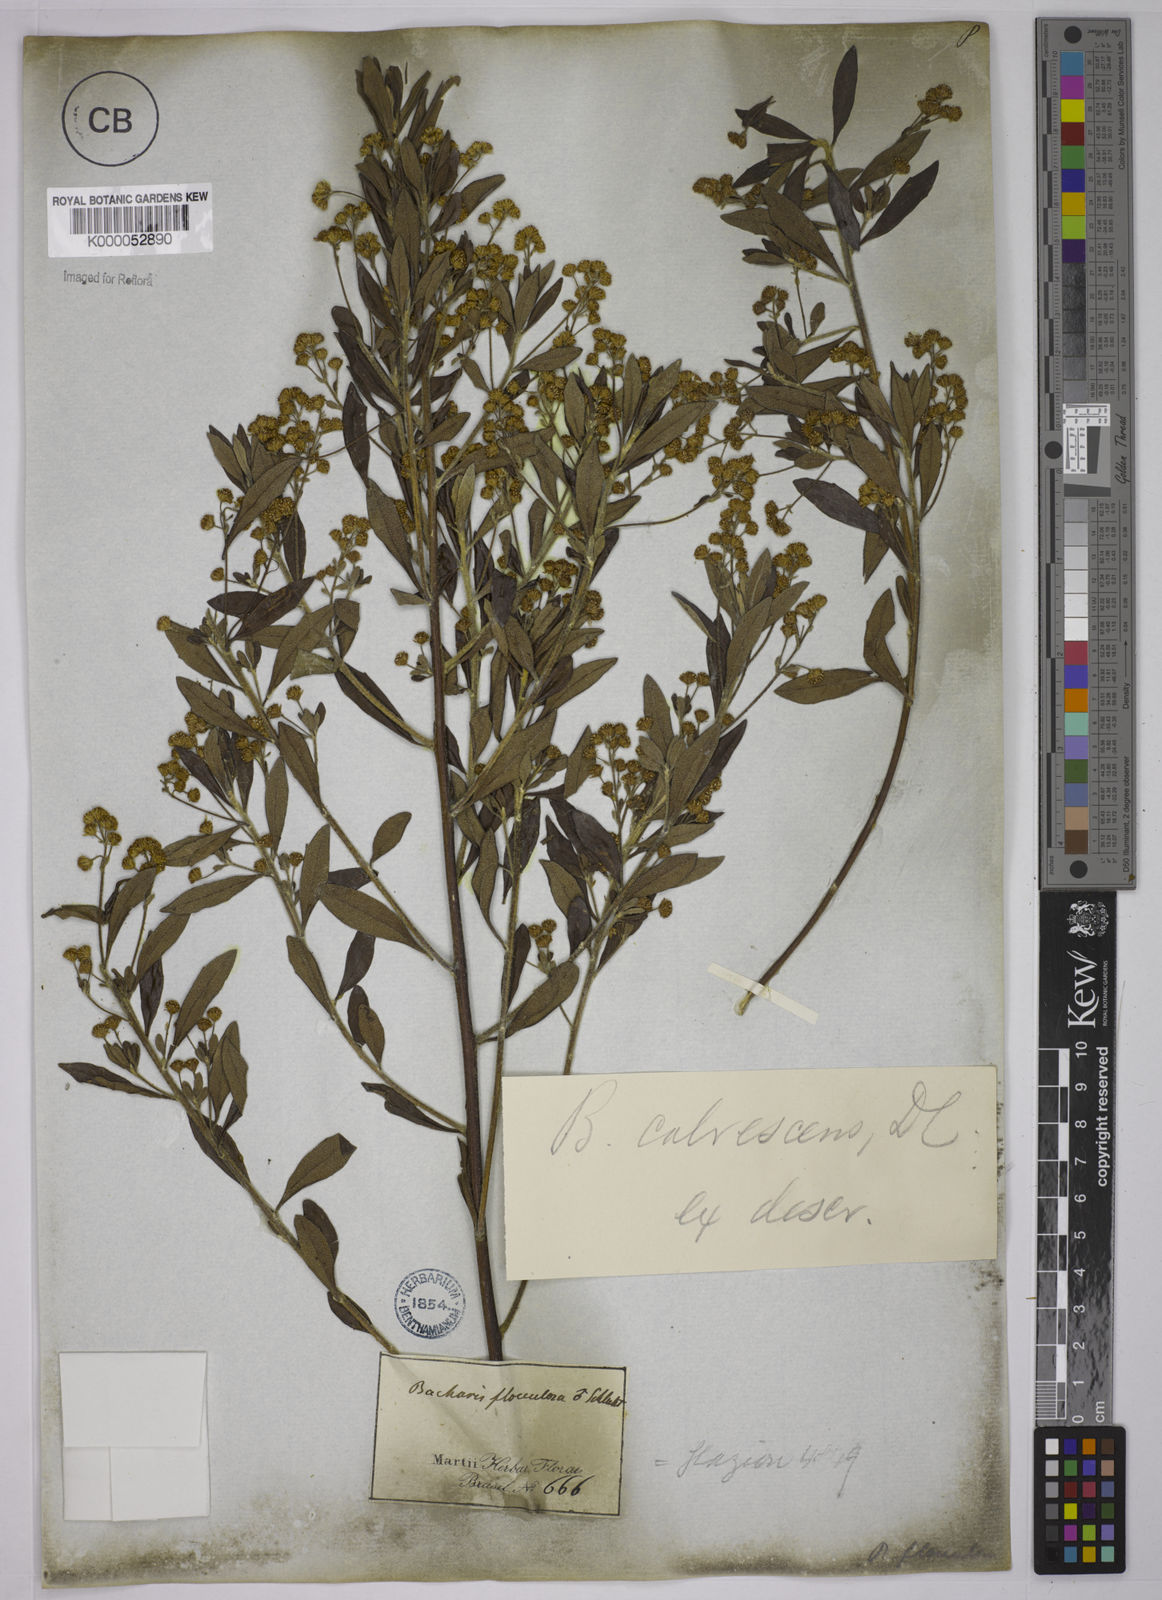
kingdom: Plantae
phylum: Tracheophyta
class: Magnoliopsida
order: Asterales
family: Asteraceae
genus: Baccharis
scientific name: Baccharis calvescens
